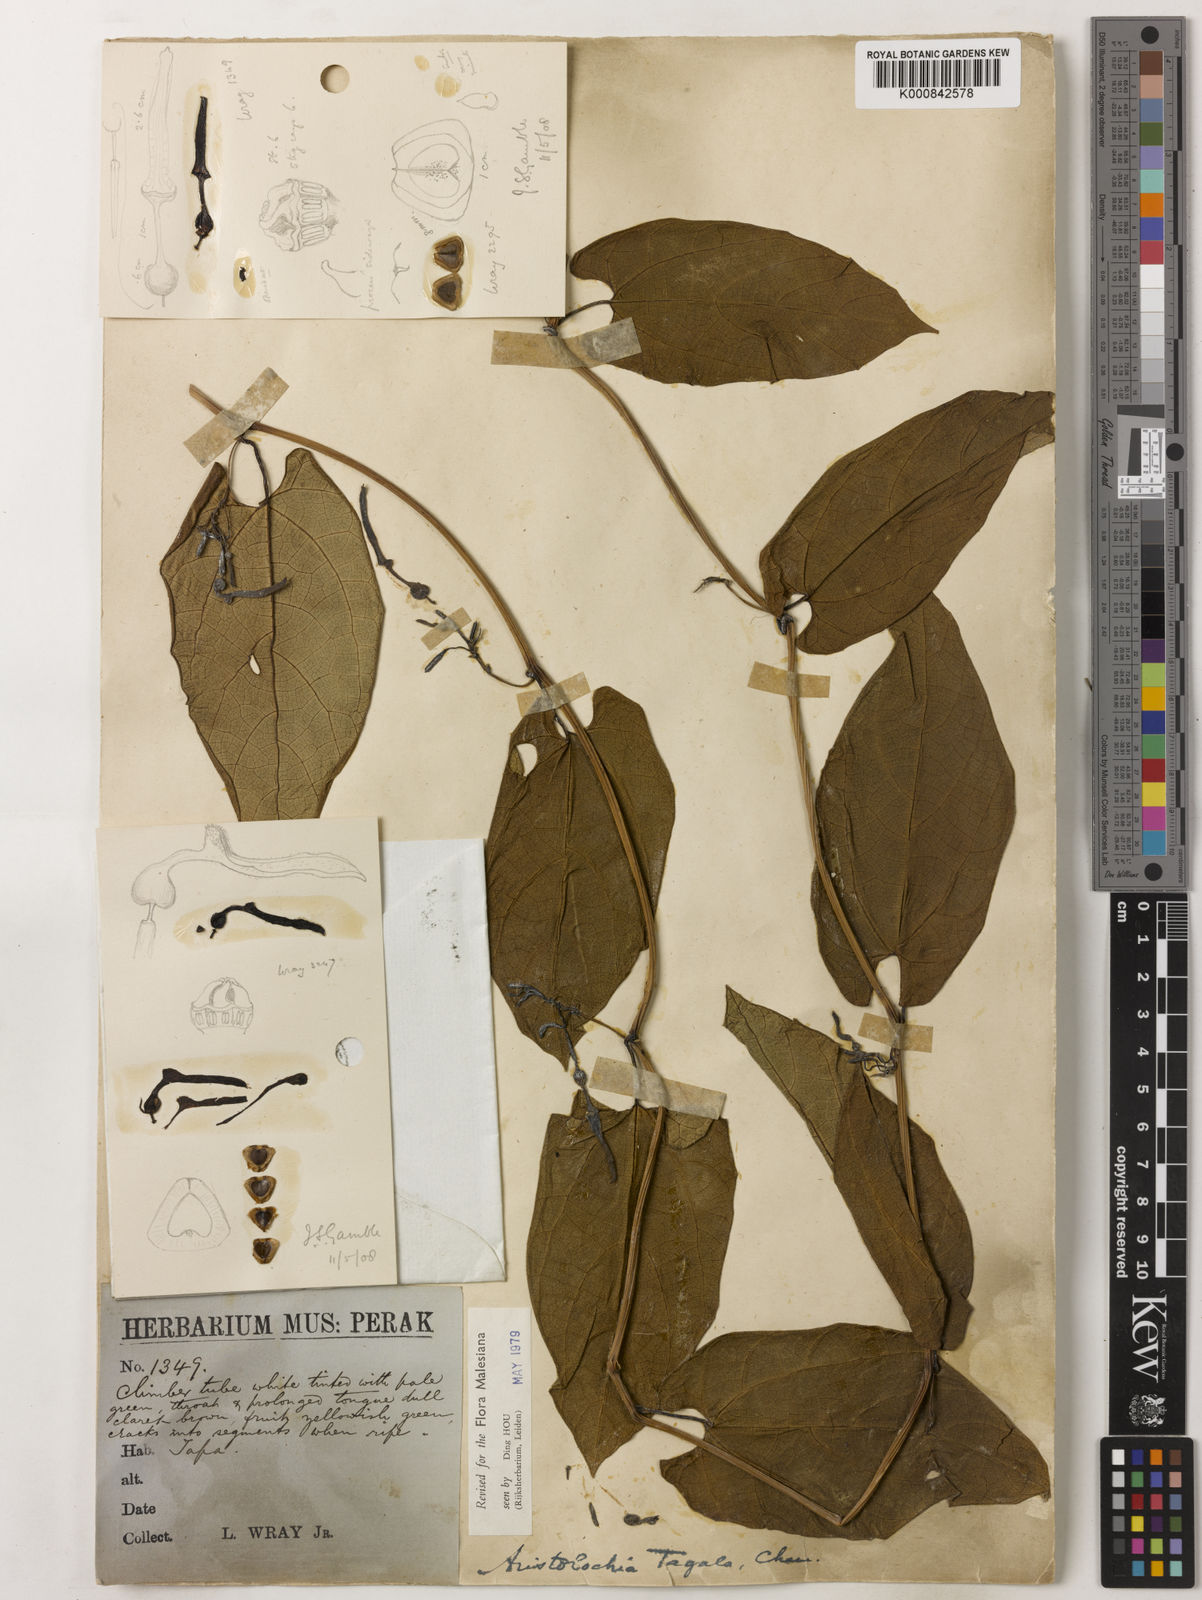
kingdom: Plantae
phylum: Tracheophyta
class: Magnoliopsida
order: Piperales
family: Aristolochiaceae
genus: Aristolochia
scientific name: Aristolochia acuminata
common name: Indian birthwort
